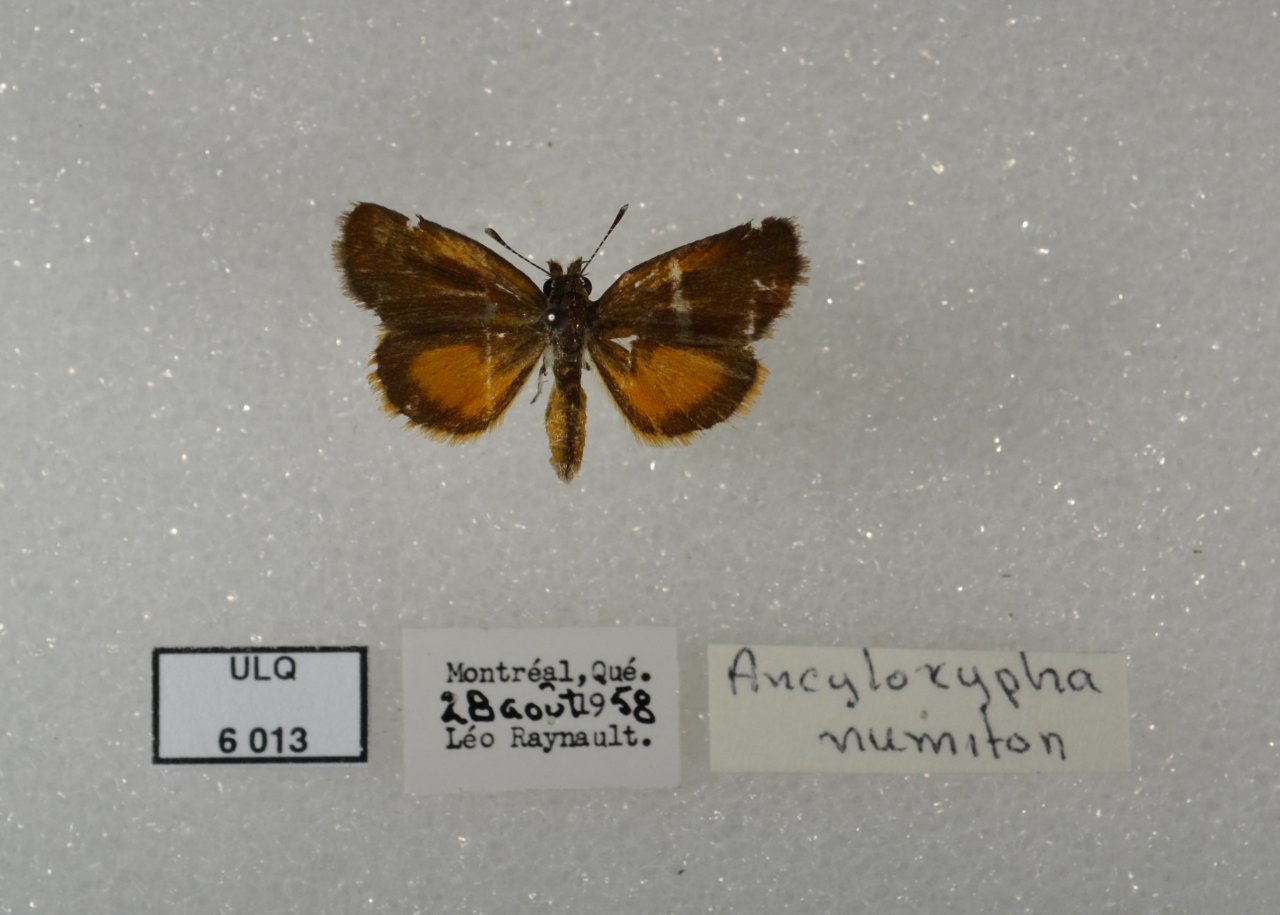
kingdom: Animalia
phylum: Arthropoda
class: Insecta
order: Lepidoptera
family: Hesperiidae
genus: Ancyloxypha
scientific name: Ancyloxypha numitor
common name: Least Skipper
